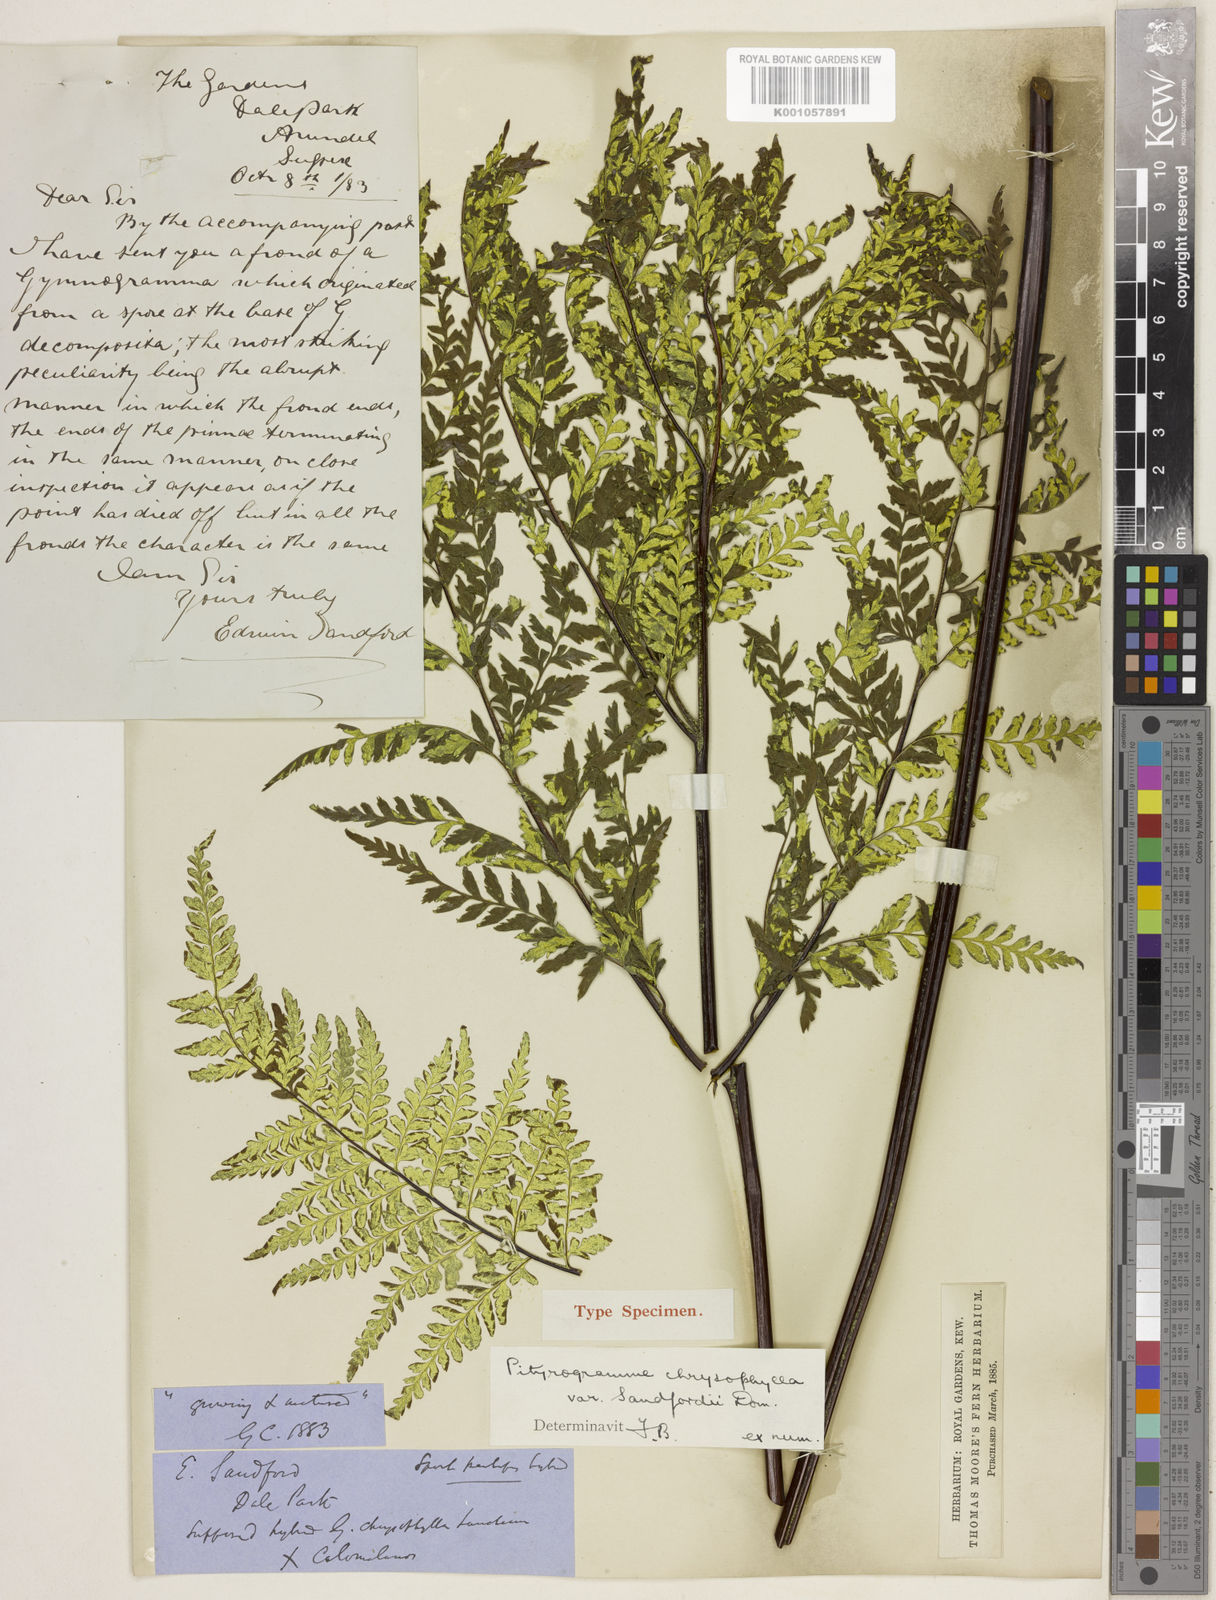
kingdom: Plantae
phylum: Tracheophyta
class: Polypodiopsida
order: Polypodiales
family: Pteridaceae
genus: Pityrogramma
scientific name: Pityrogramma chrysophylla
